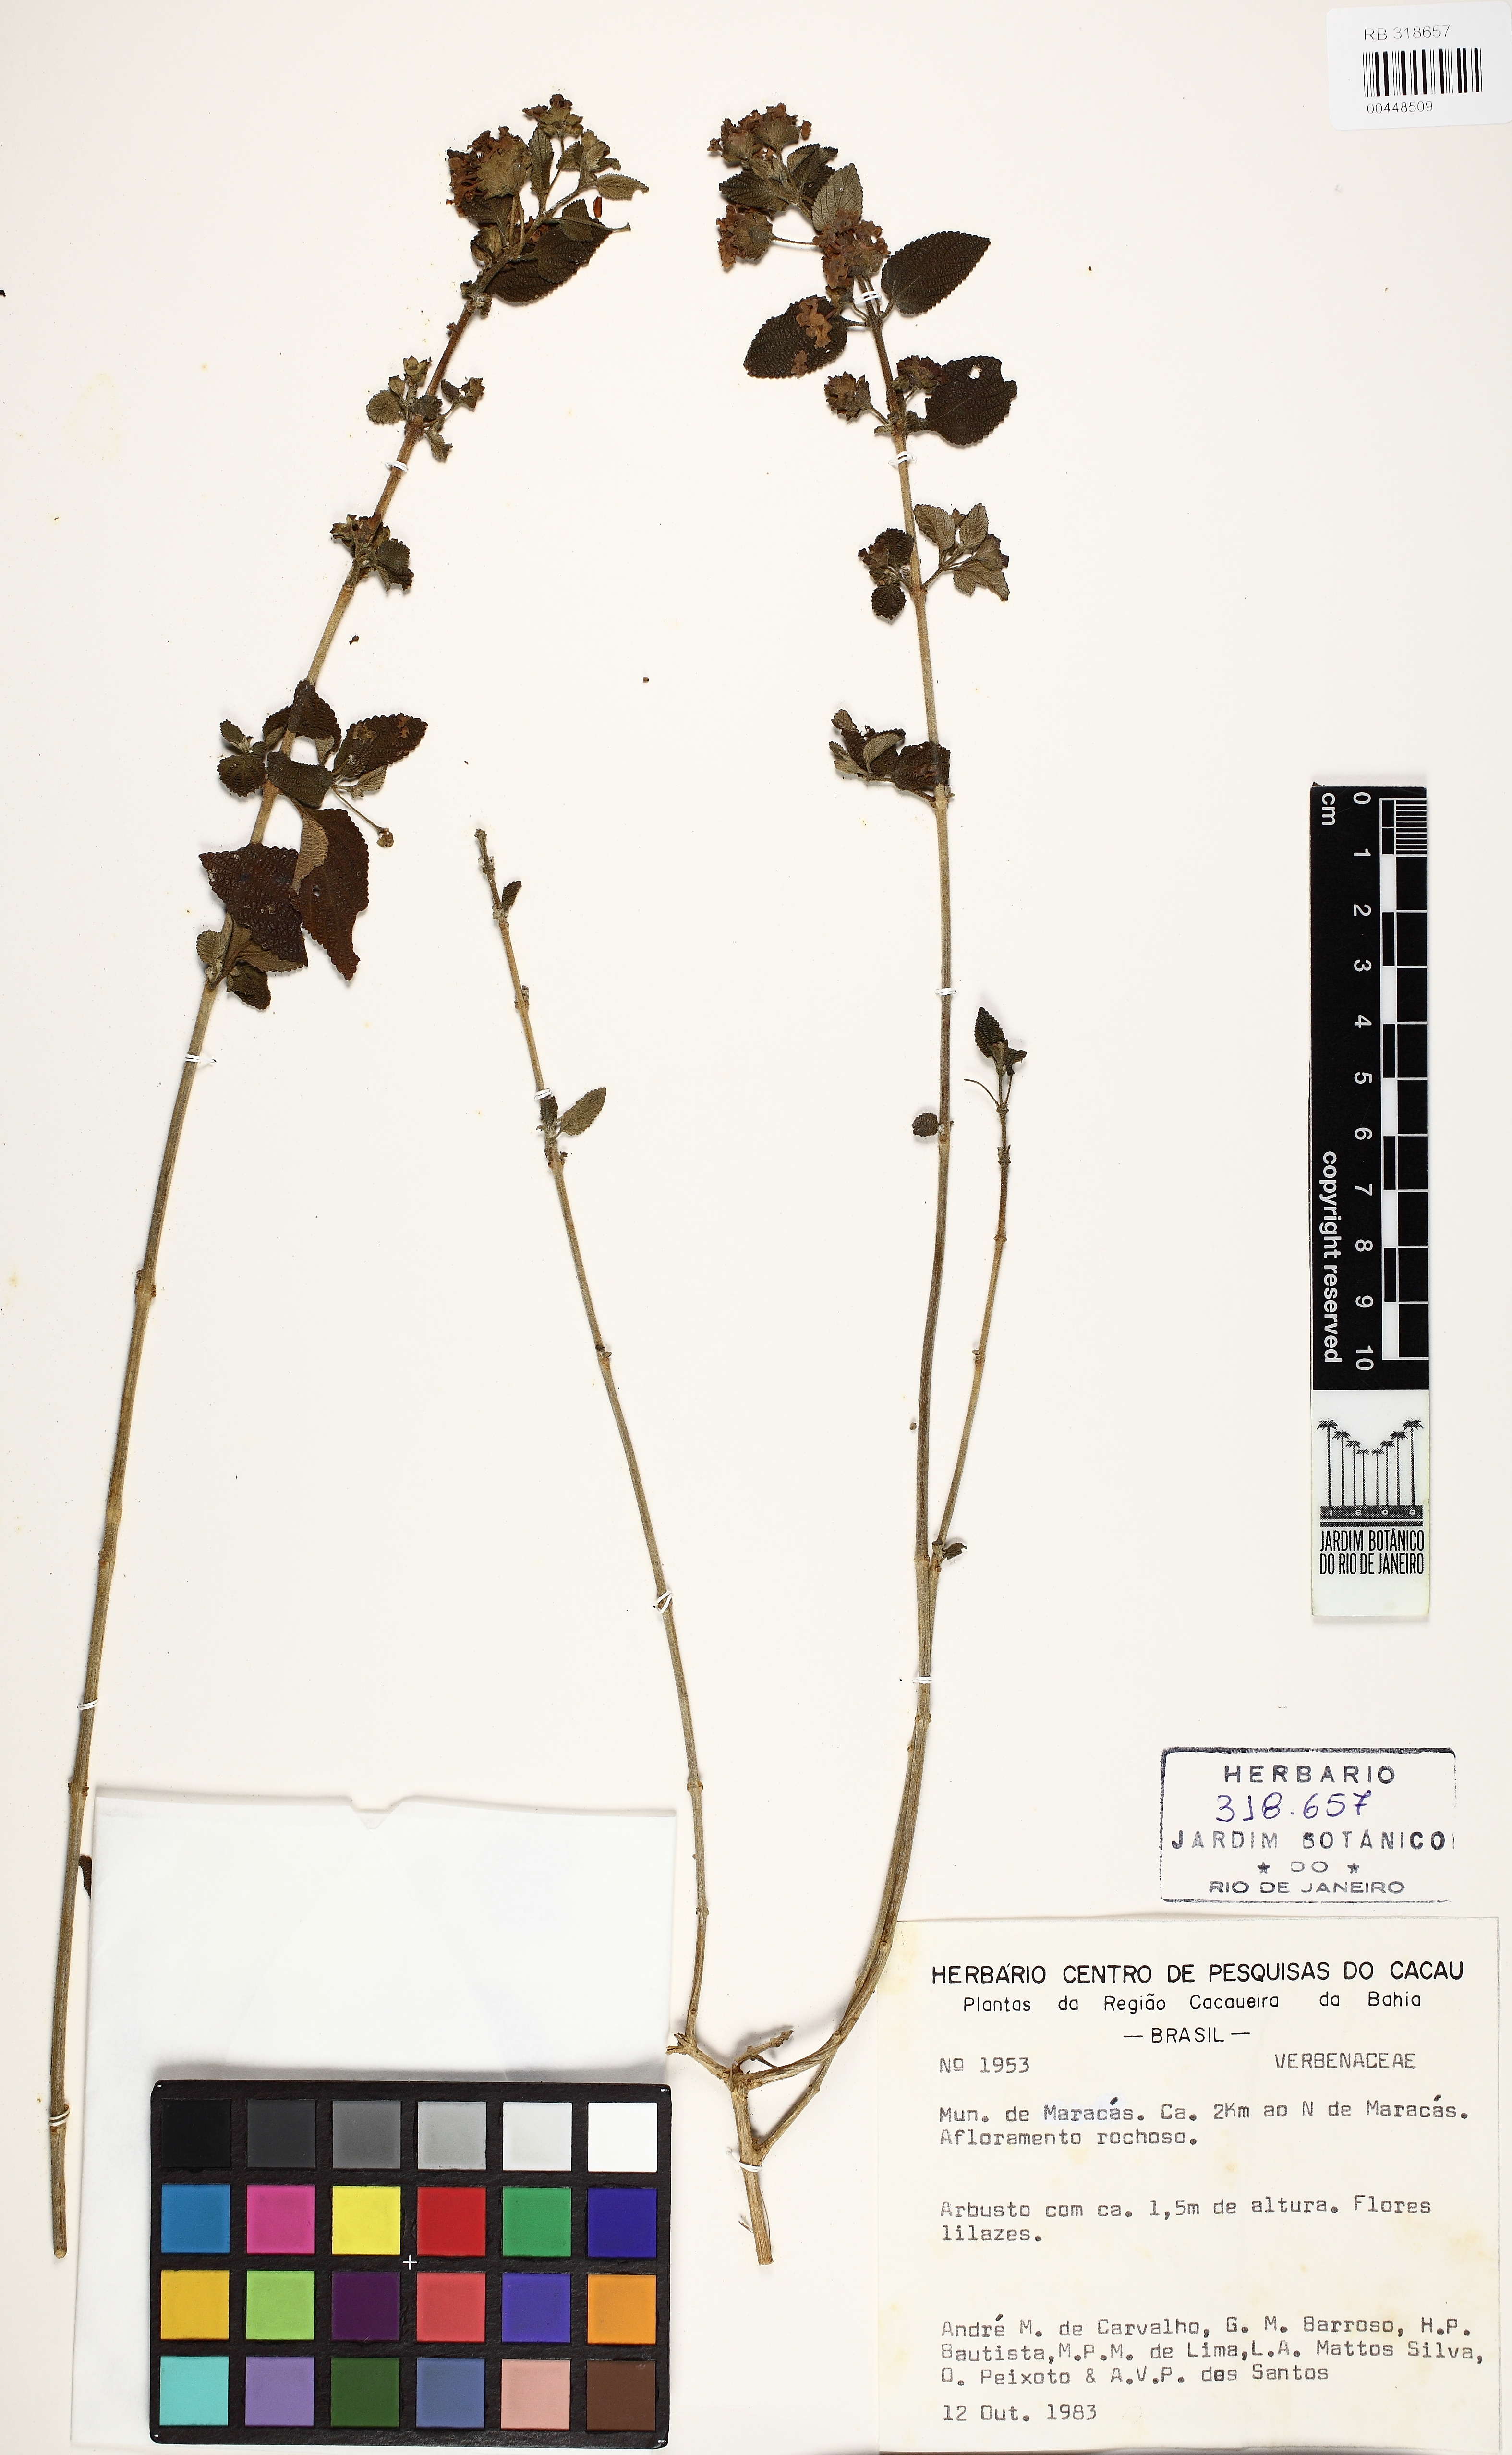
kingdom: Plantae
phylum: Tracheophyta
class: Magnoliopsida
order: Lamiales
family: Verbenaceae
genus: Lantana
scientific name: Lantana fucata
